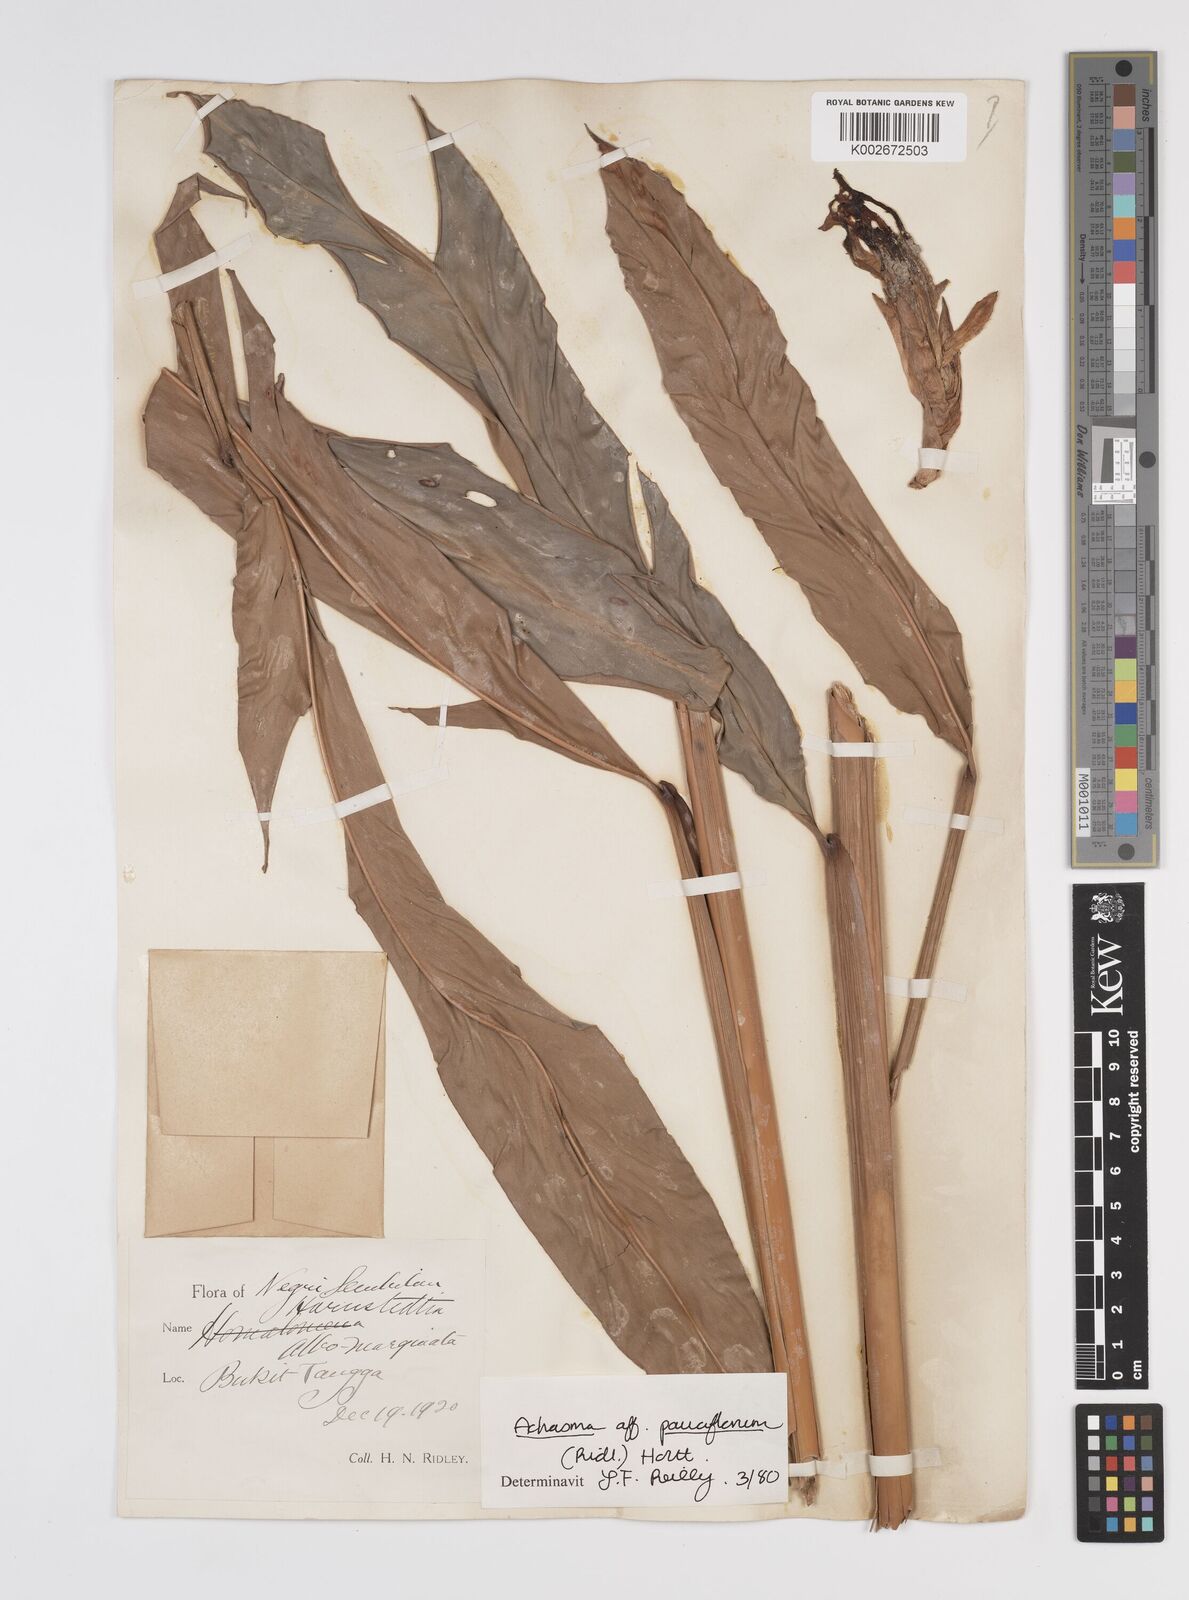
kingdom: Plantae
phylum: Tracheophyta
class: Liliopsida
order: Zingiberales
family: Zingiberaceae
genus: Etlingera
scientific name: Etlingera pauciflora
